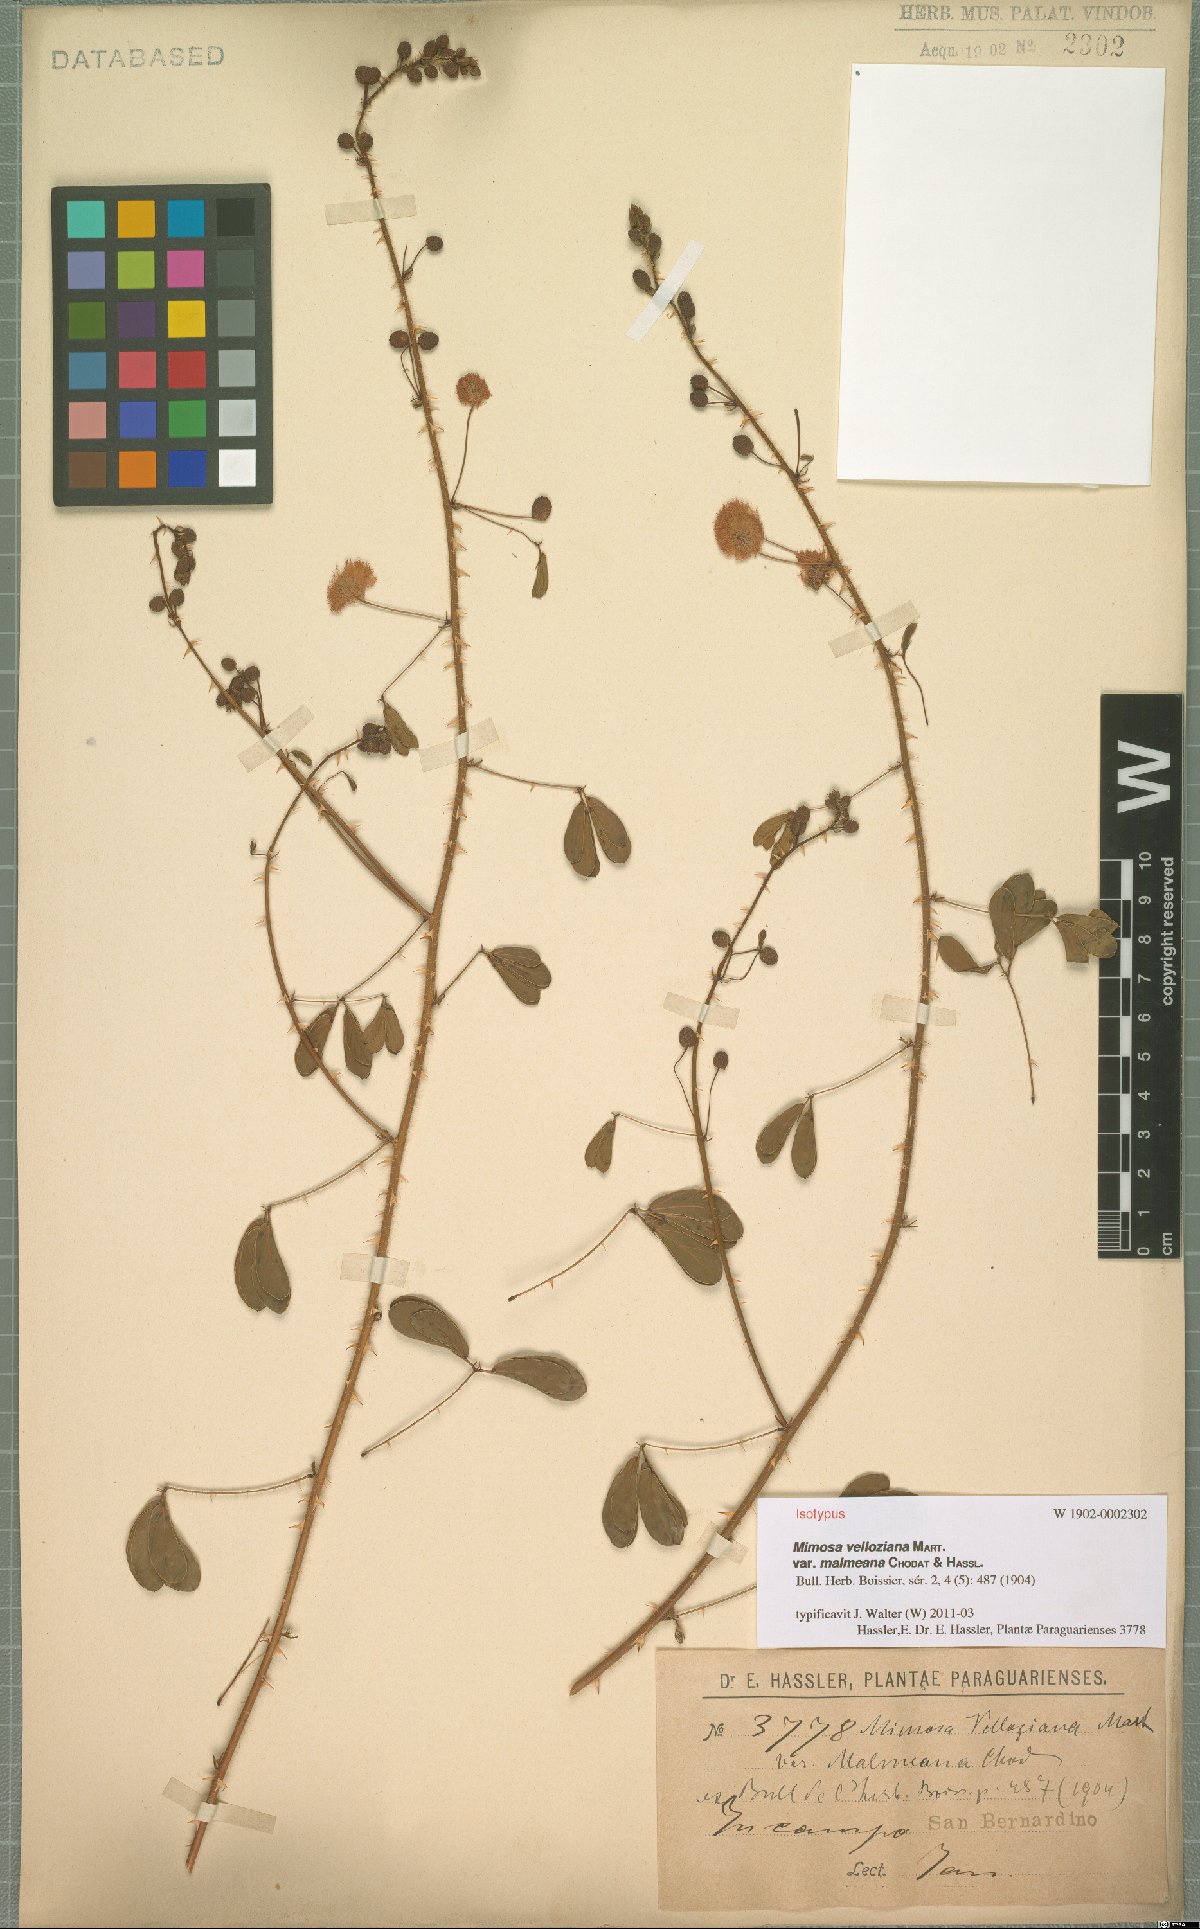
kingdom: Plantae
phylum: Tracheophyta
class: Magnoliopsida
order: Fabales
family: Fabaceae
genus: Mimosa
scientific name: Mimosa debilis
